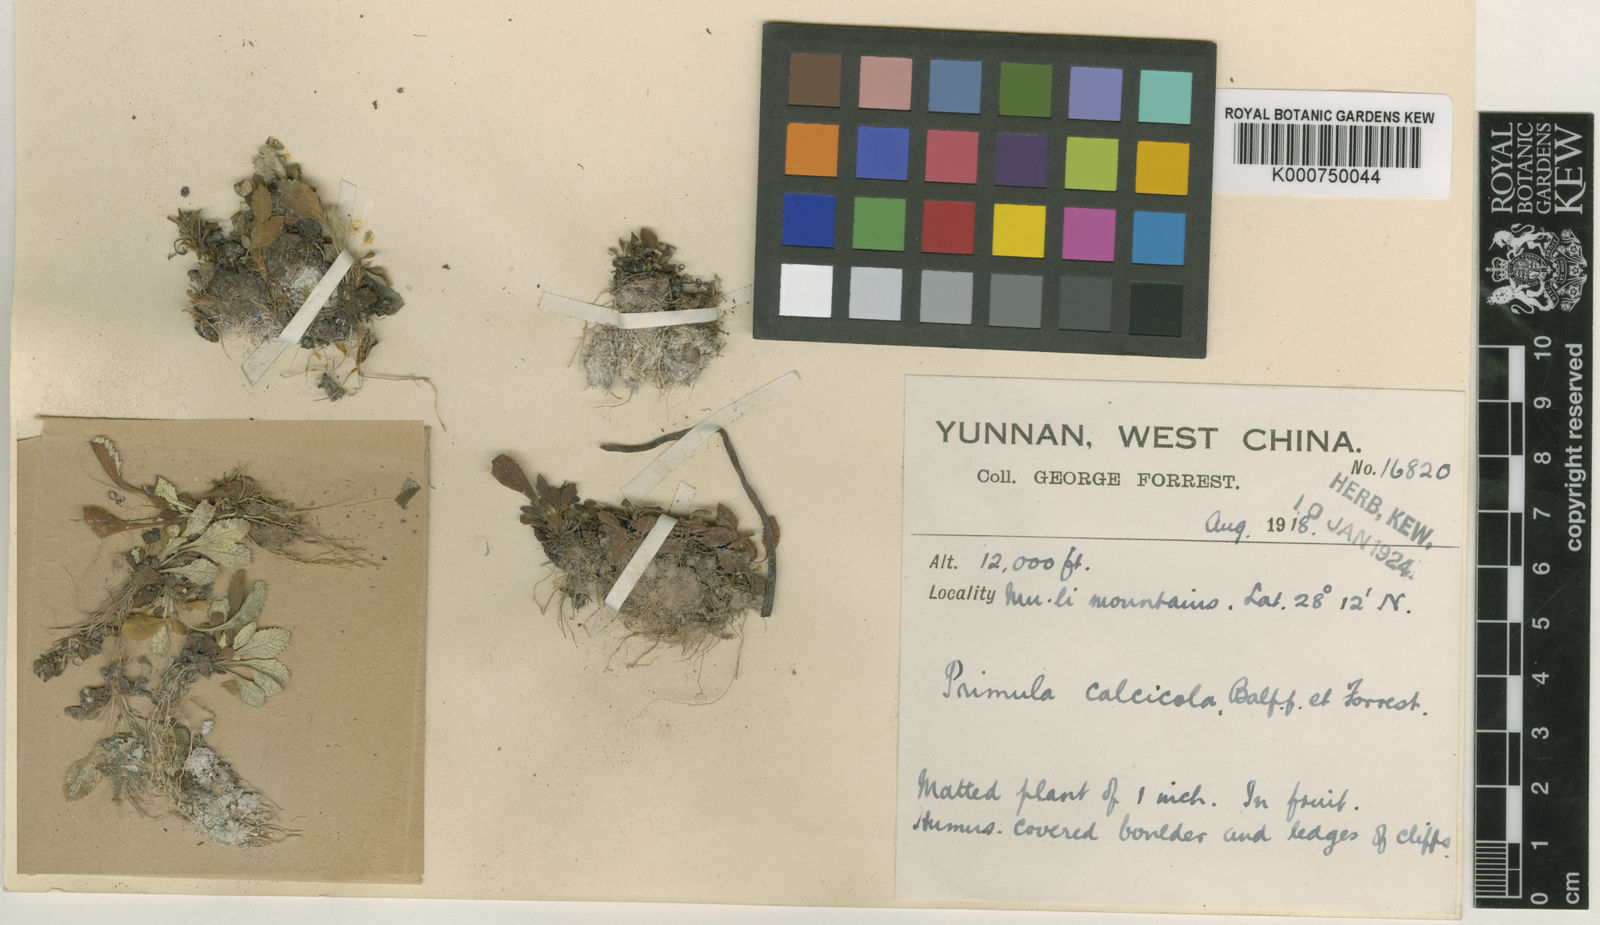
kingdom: Plantae
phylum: Tracheophyta
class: Magnoliopsida
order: Ericales
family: Primulaceae
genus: Primula
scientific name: Primula yunnanensis
